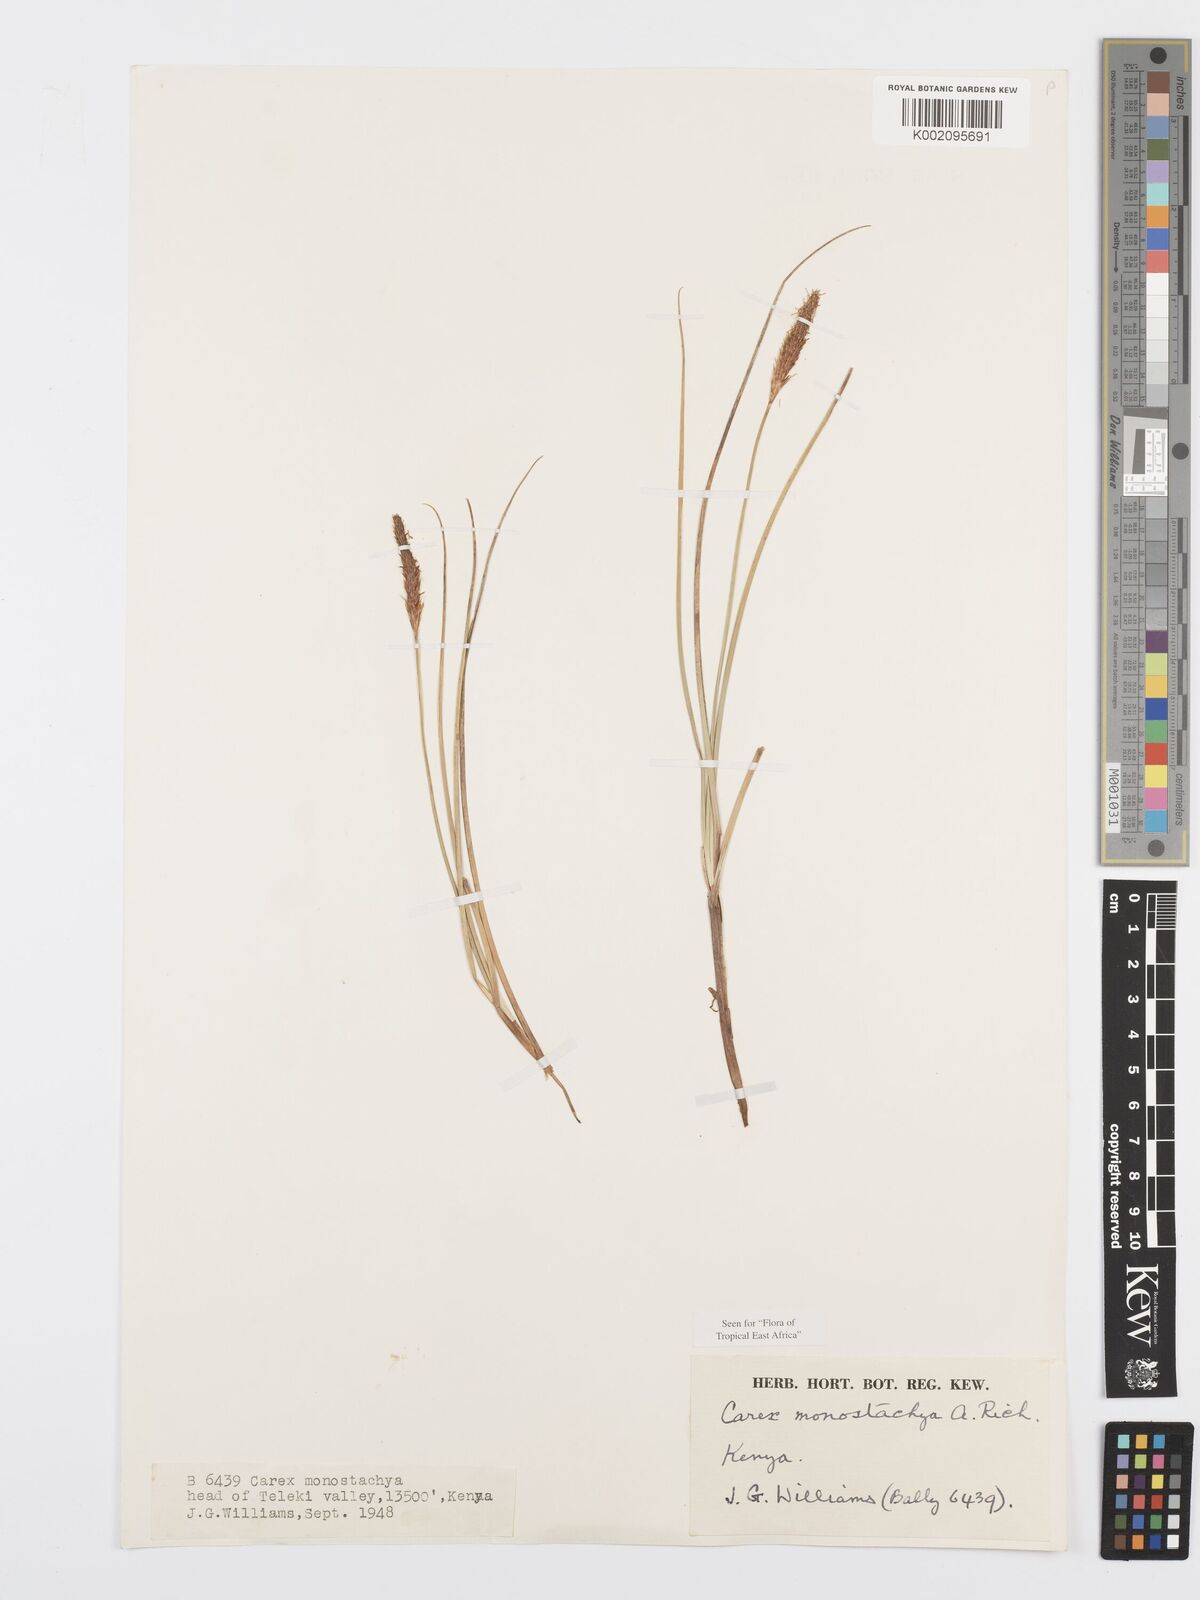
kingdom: Plantae
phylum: Tracheophyta
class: Liliopsida
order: Poales
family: Cyperaceae
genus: Carex
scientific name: Carex monostachya
